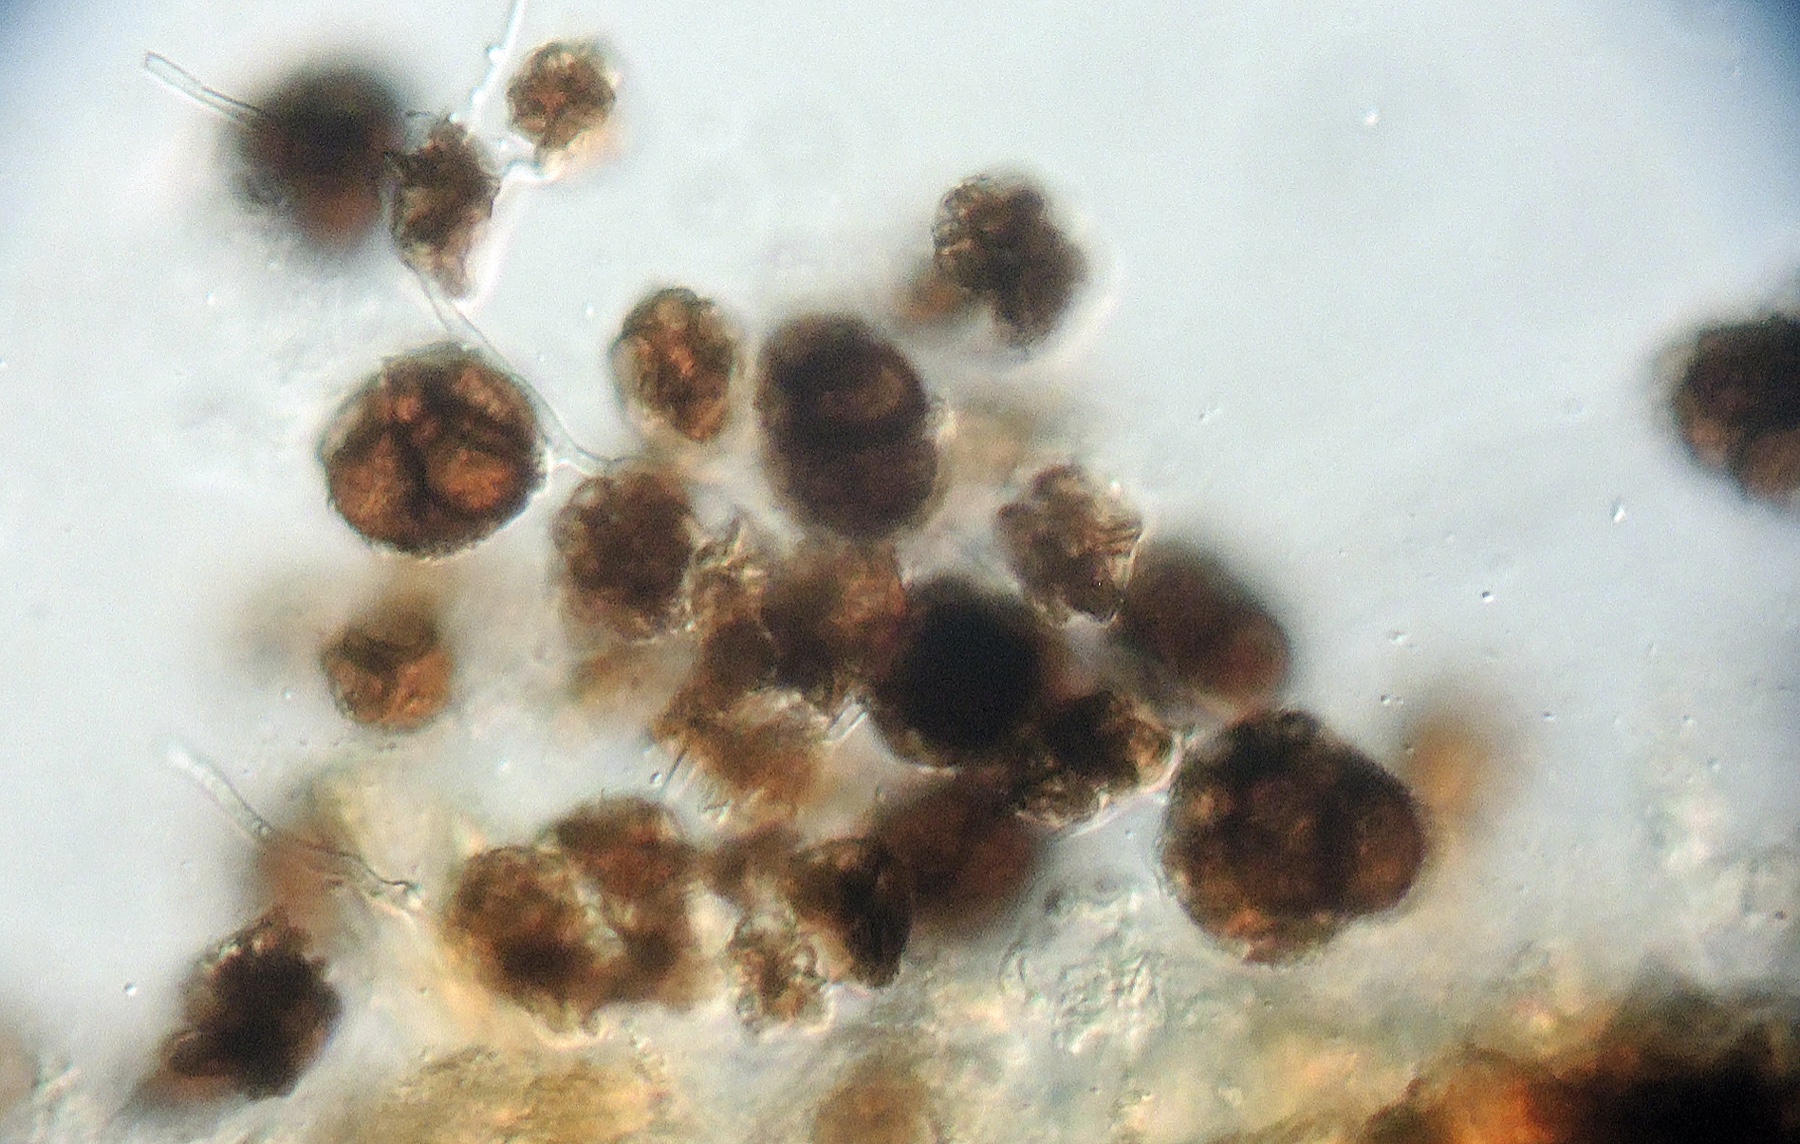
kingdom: Fungi
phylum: Basidiomycota
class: Ustilaginomycetes
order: Urocystidales
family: Urocystidaceae
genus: Urocystis
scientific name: Urocystis syncocca
